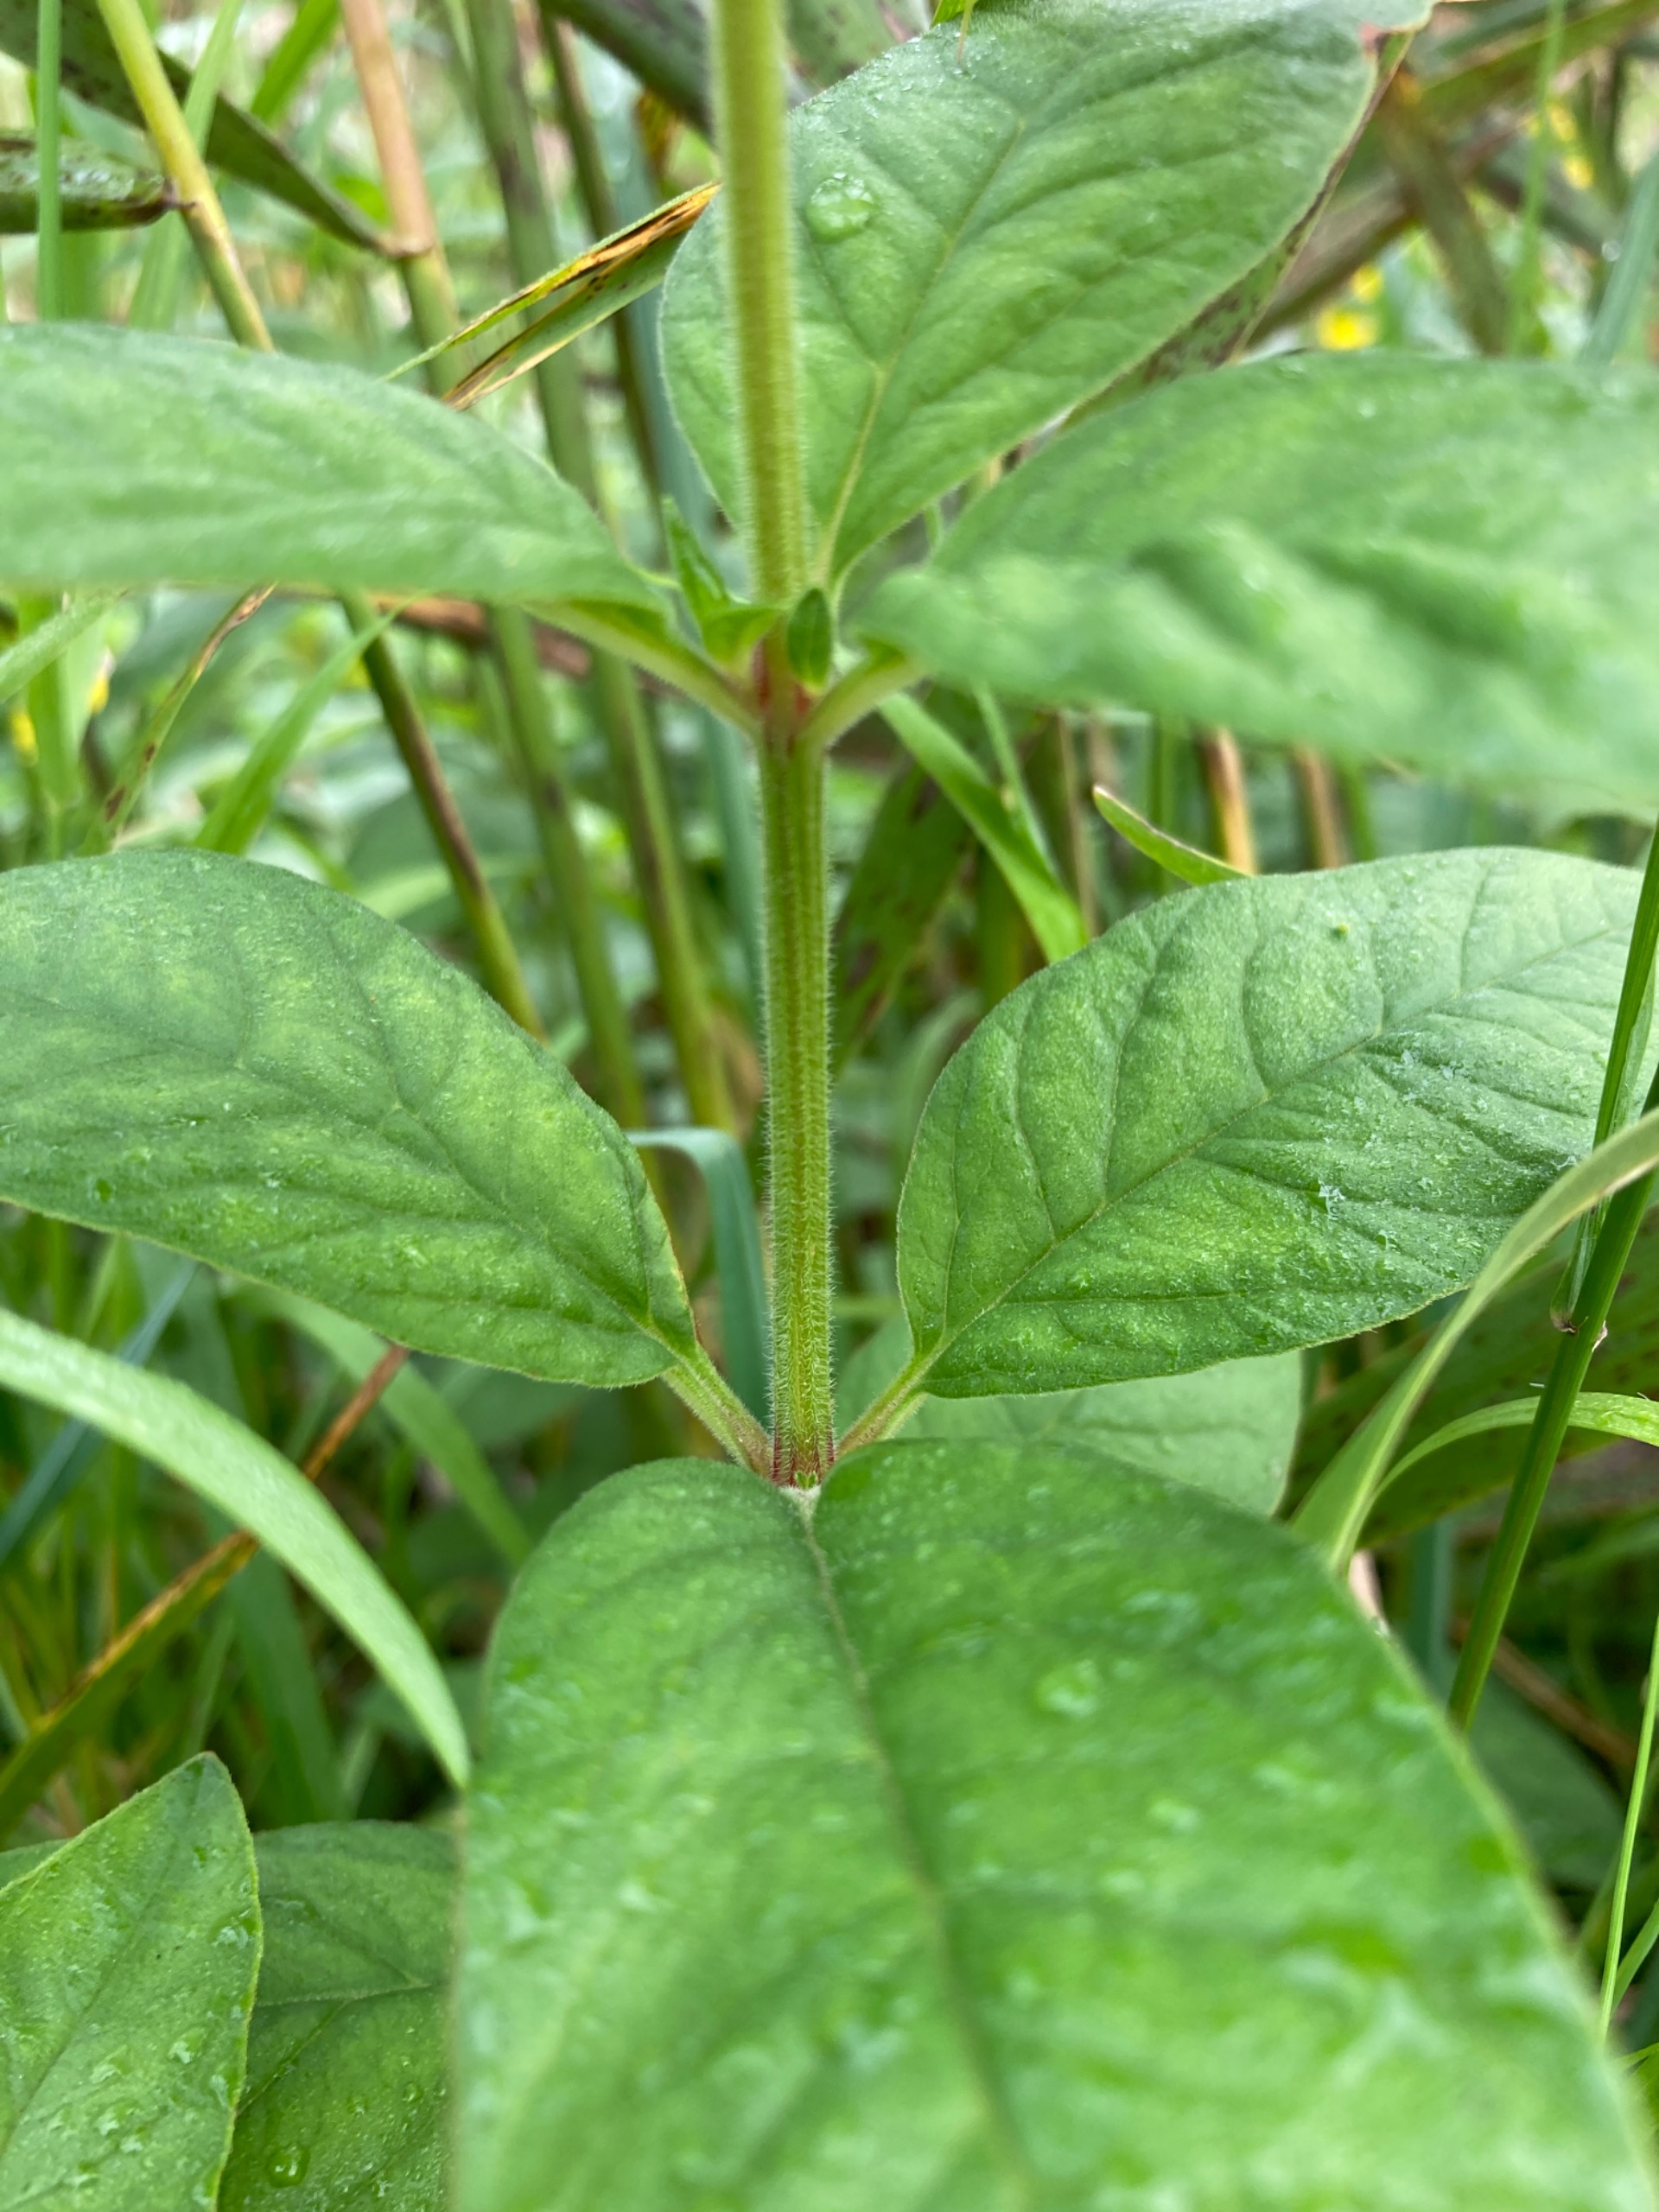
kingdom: Plantae
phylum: Tracheophyta
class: Magnoliopsida
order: Ericales
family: Primulaceae
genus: Lysimachia
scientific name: Lysimachia punctata
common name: Prikbladet fredløs
